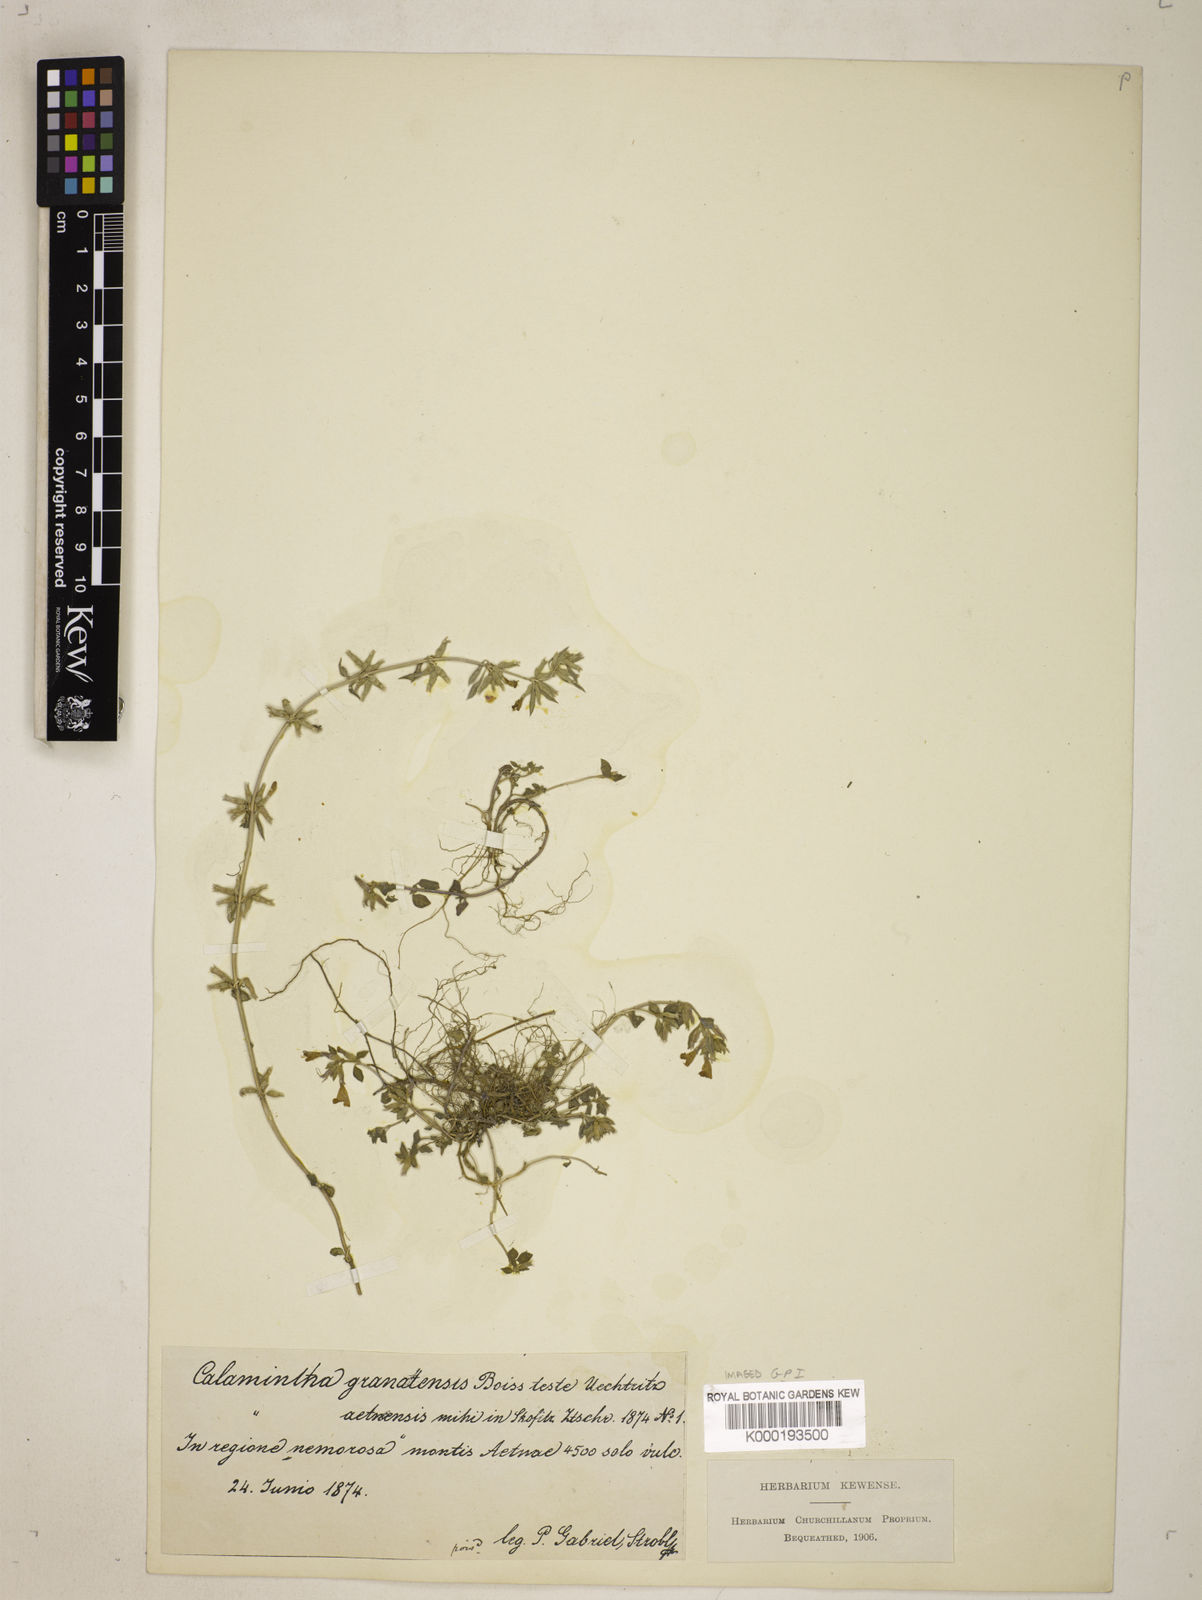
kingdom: Plantae
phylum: Tracheophyta
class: Magnoliopsida
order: Lamiales
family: Lamiaceae
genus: Clinopodium
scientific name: Clinopodium alpinum
